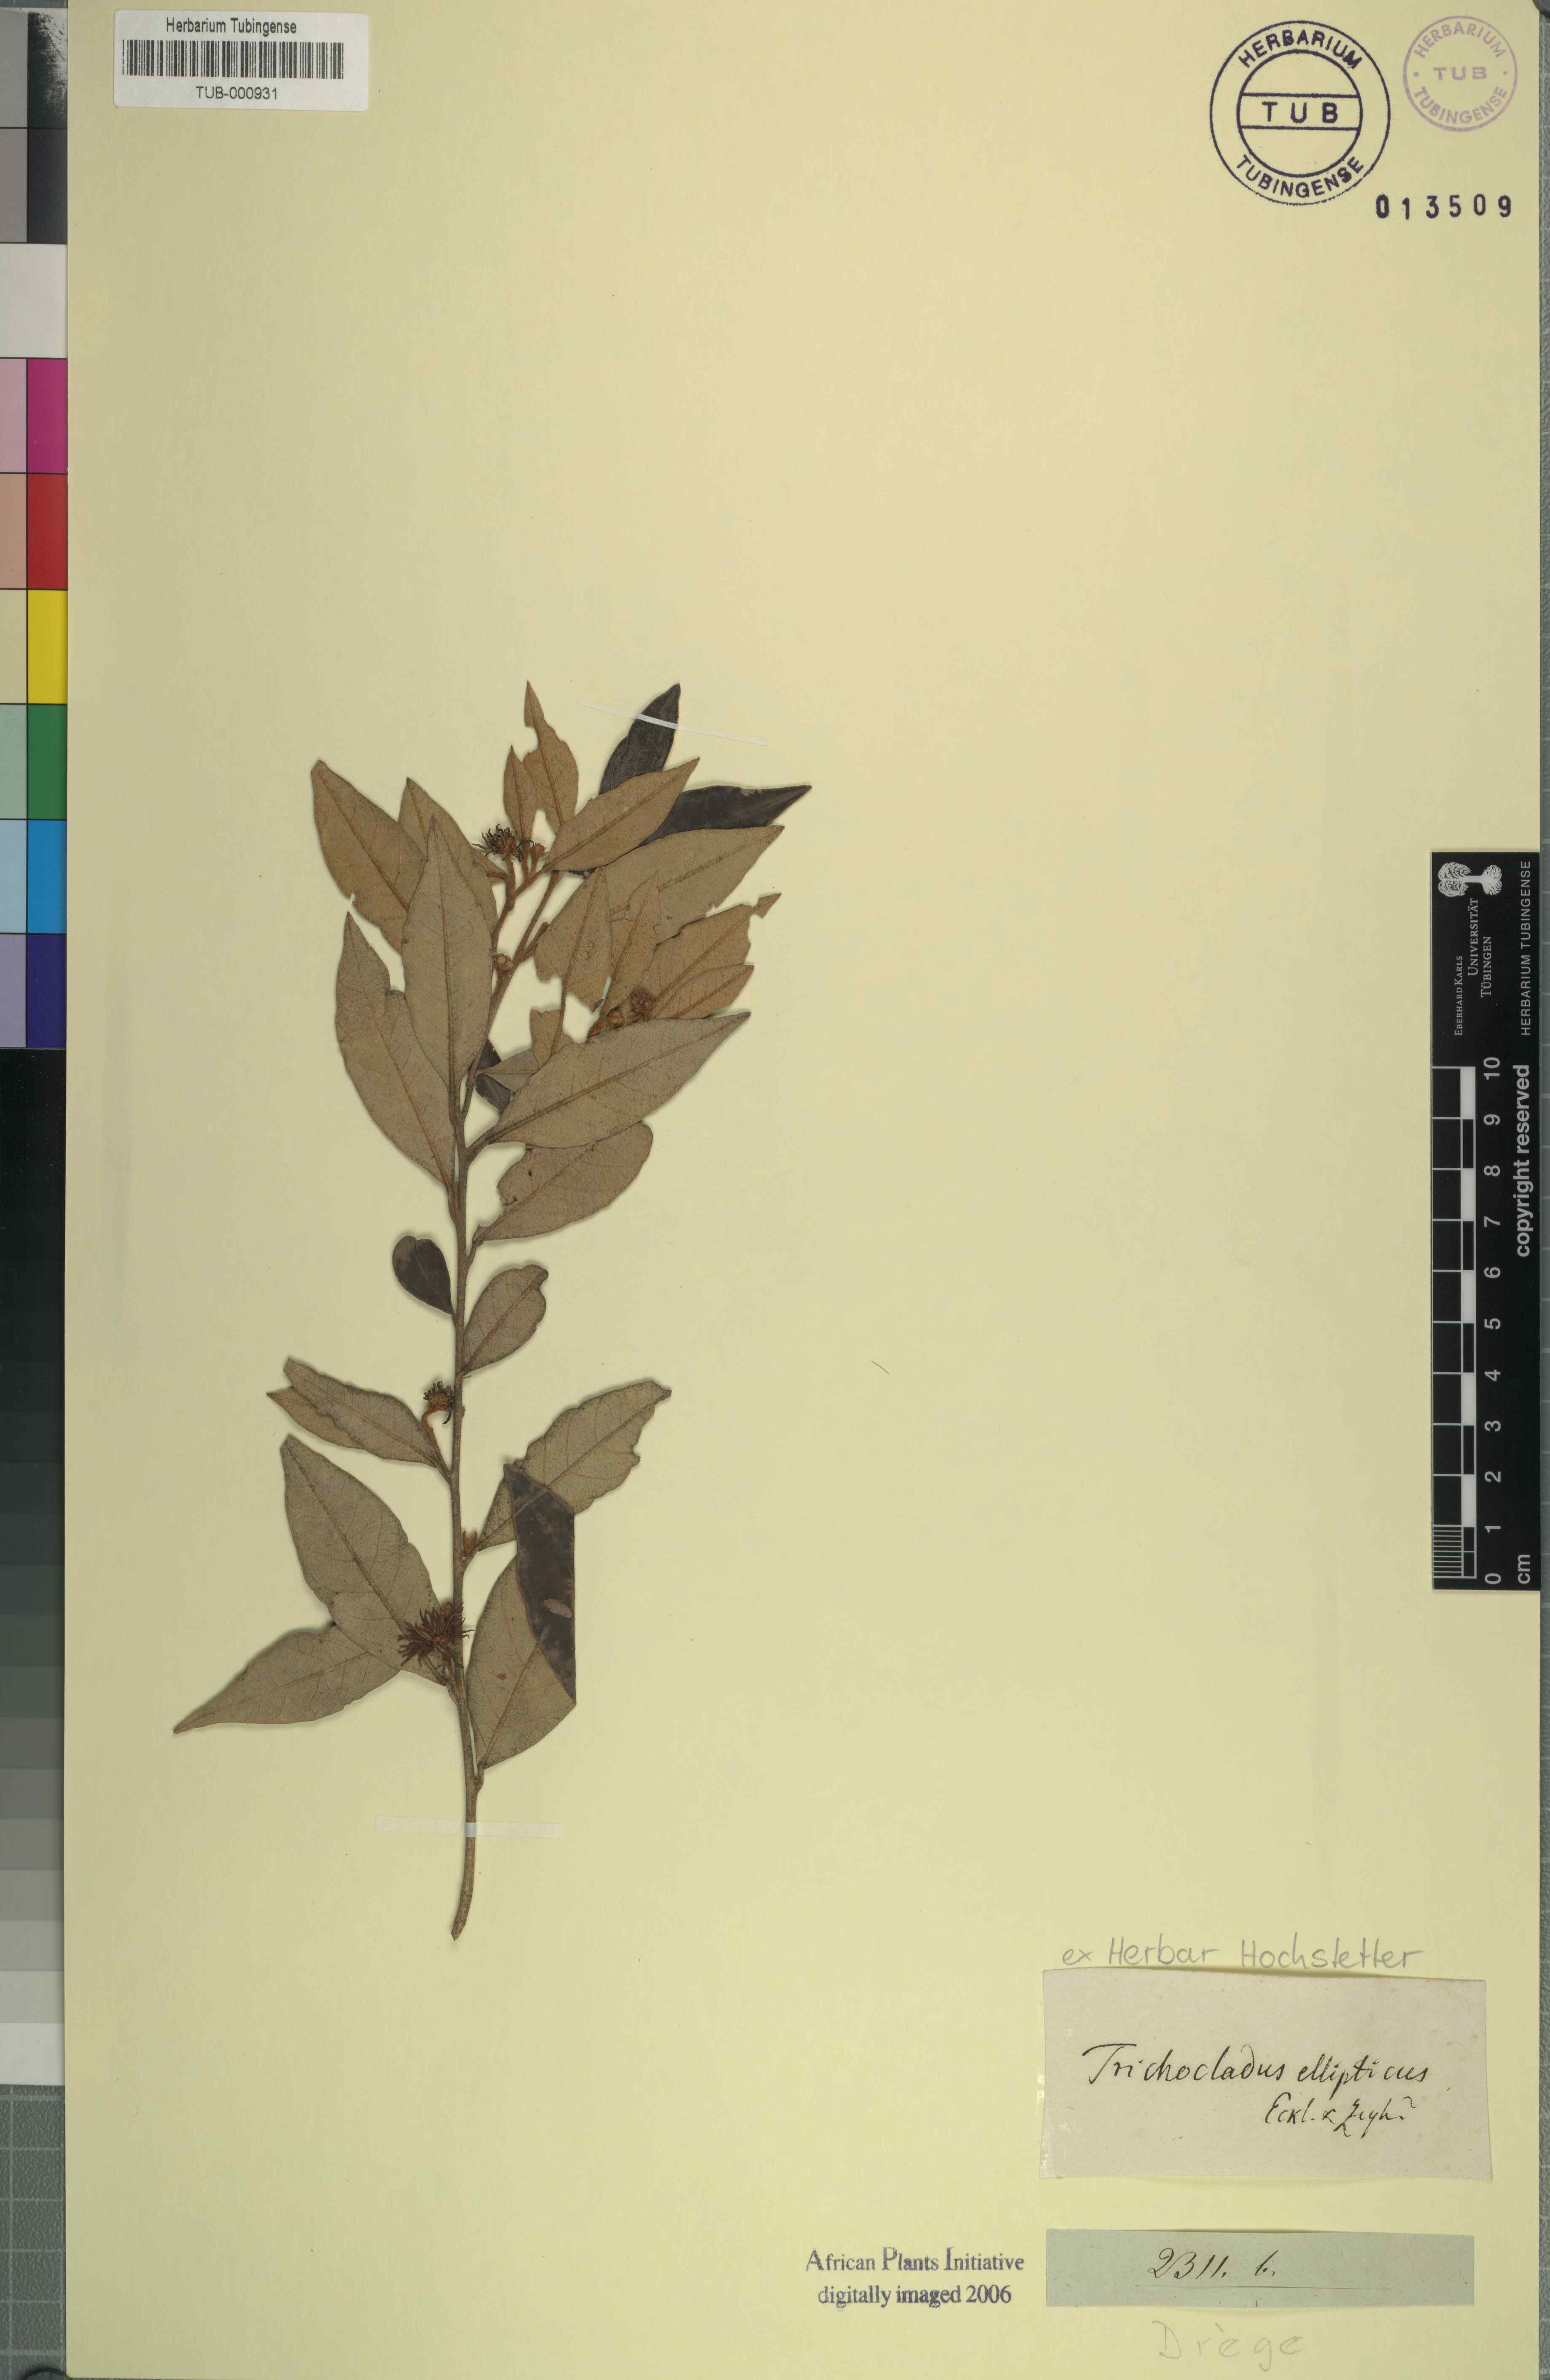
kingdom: Plantae
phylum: Tracheophyta
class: Magnoliopsida
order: Saxifragales
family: Hamamelidaceae
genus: Trichocladus
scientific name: Trichocladus ellipticus
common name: White witch-hazel
